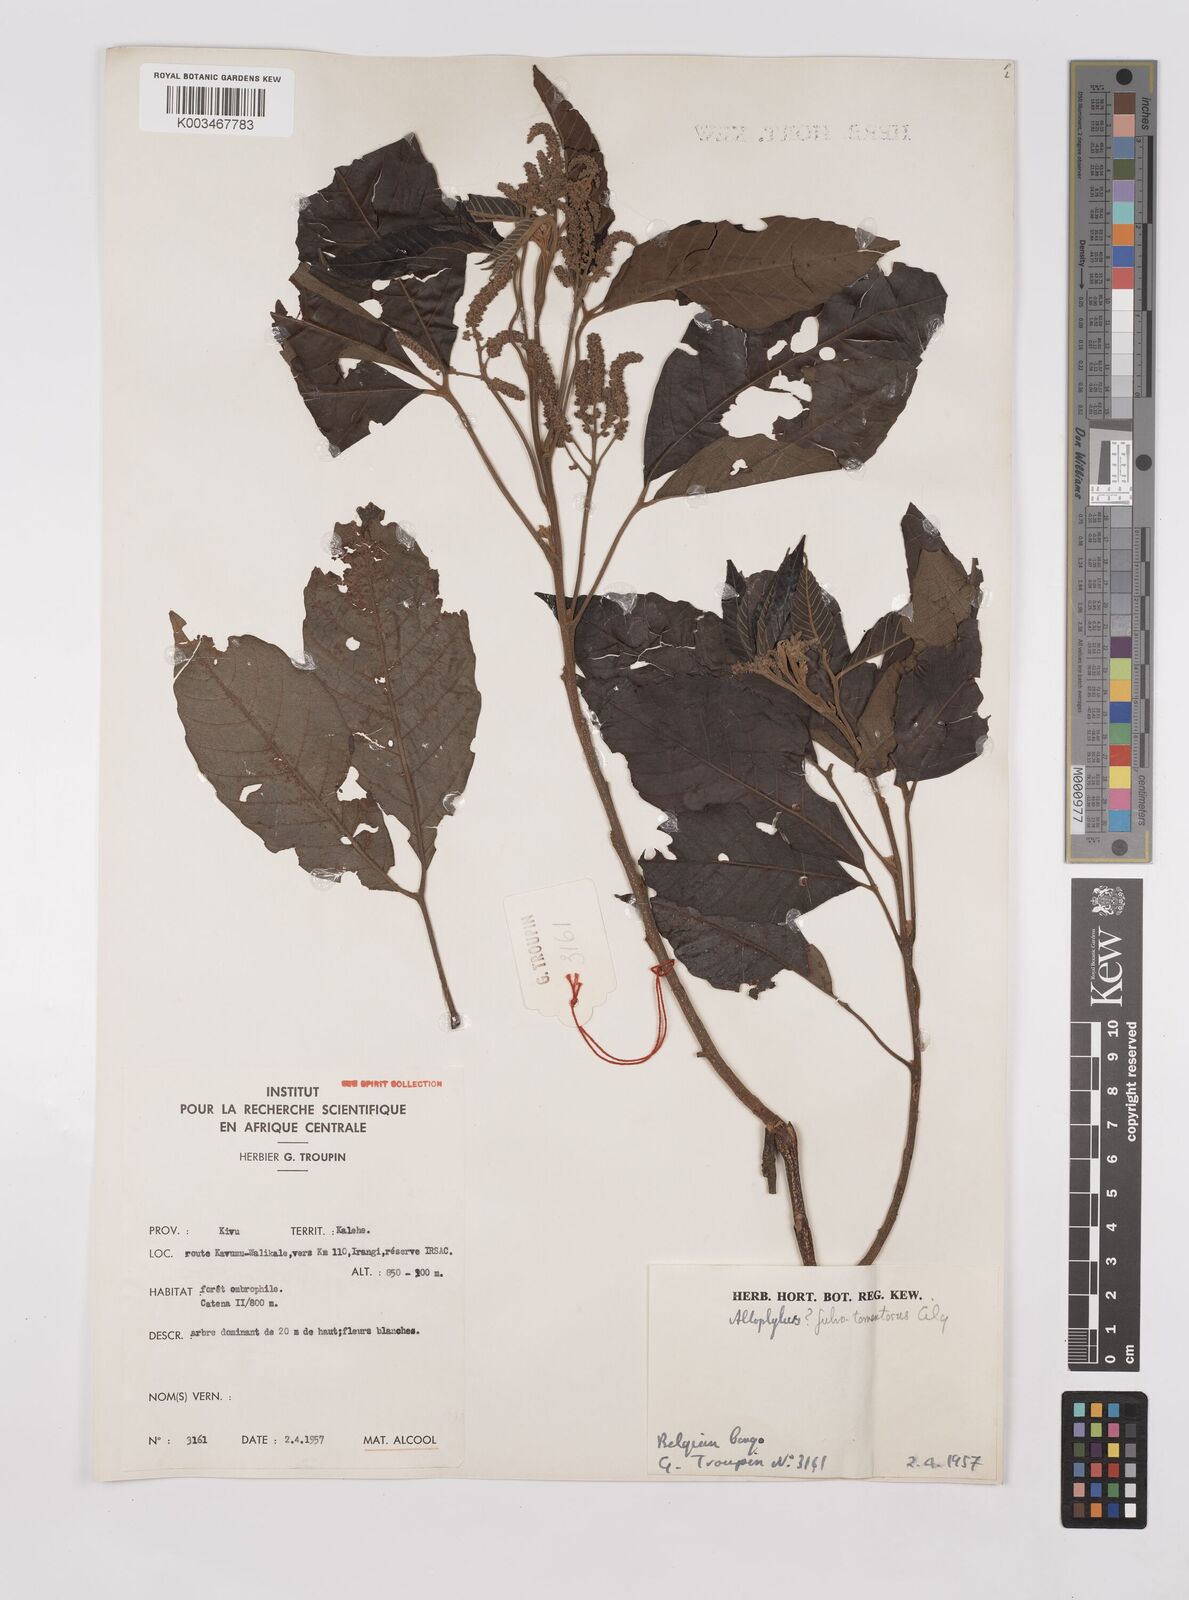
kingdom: Plantae
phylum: Tracheophyta
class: Magnoliopsida
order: Sapindales
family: Sapindaceae
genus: Allophylus
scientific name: Allophylus africanus
